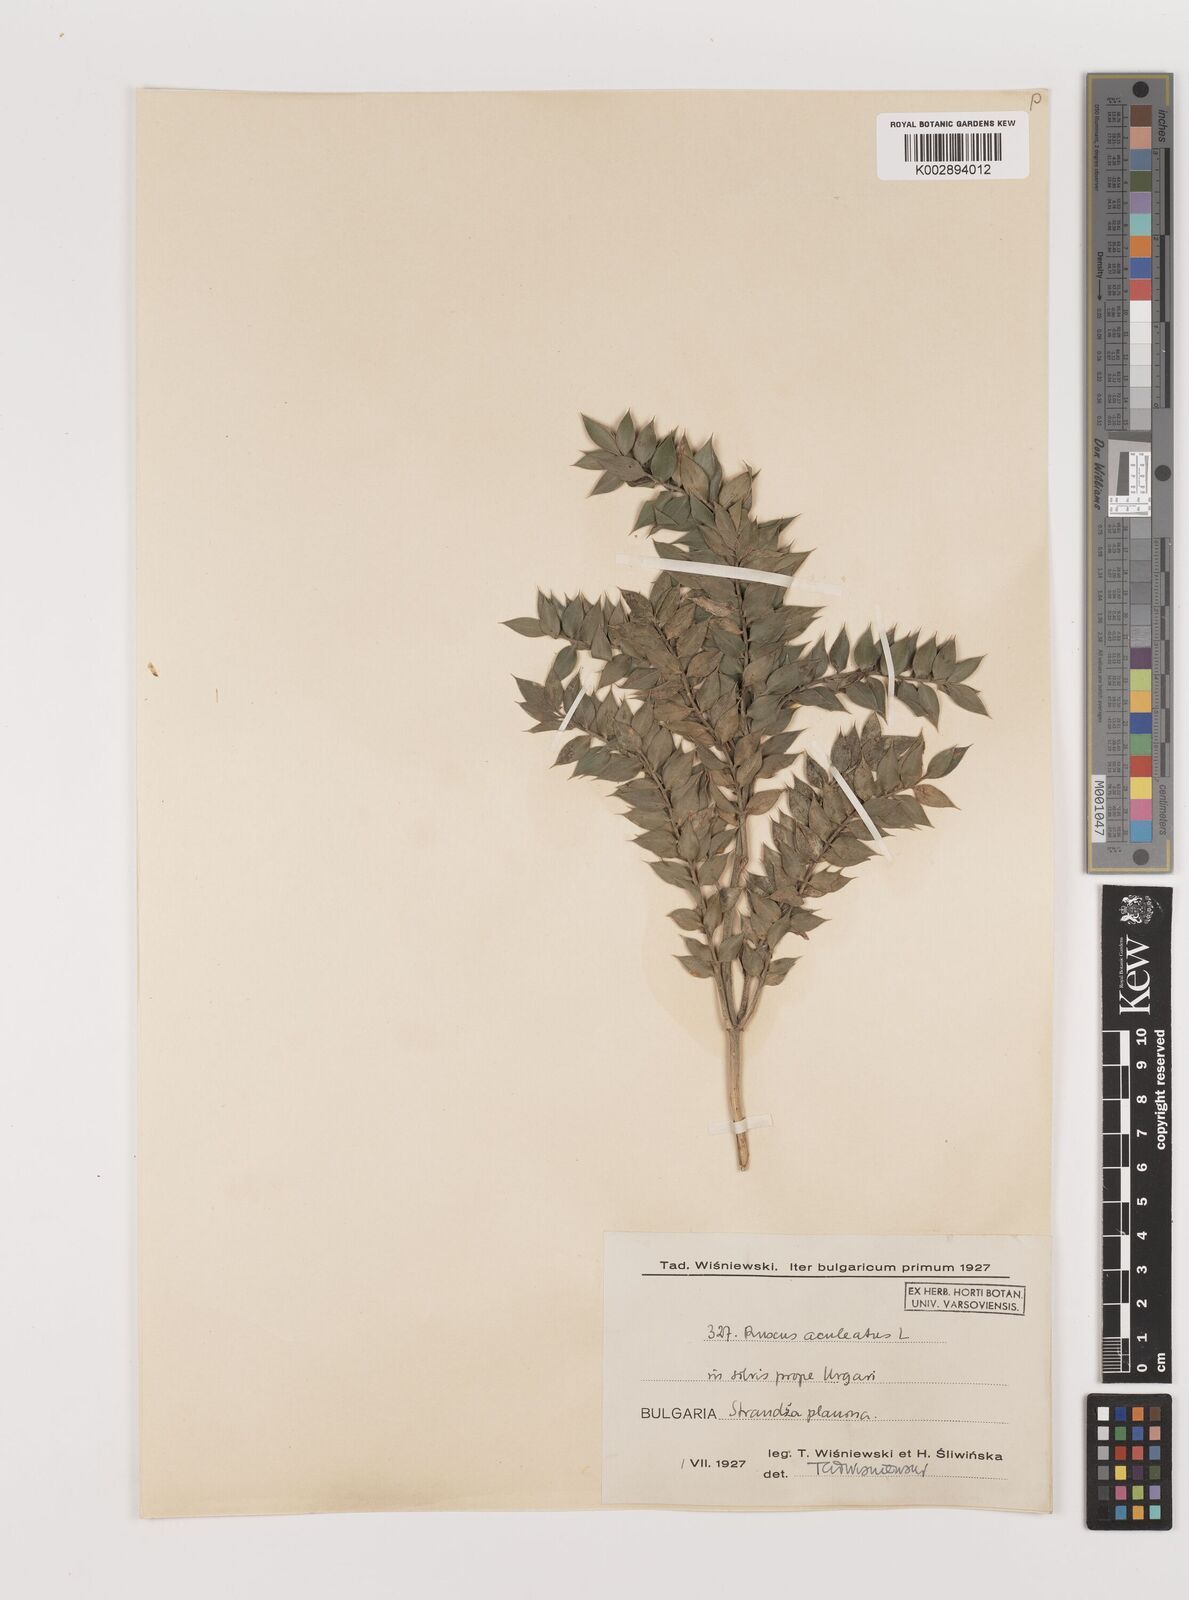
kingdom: Plantae
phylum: Tracheophyta
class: Liliopsida
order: Asparagales
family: Asparagaceae
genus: Ruscus
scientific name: Ruscus aculeatus
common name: Butcher's-broom
